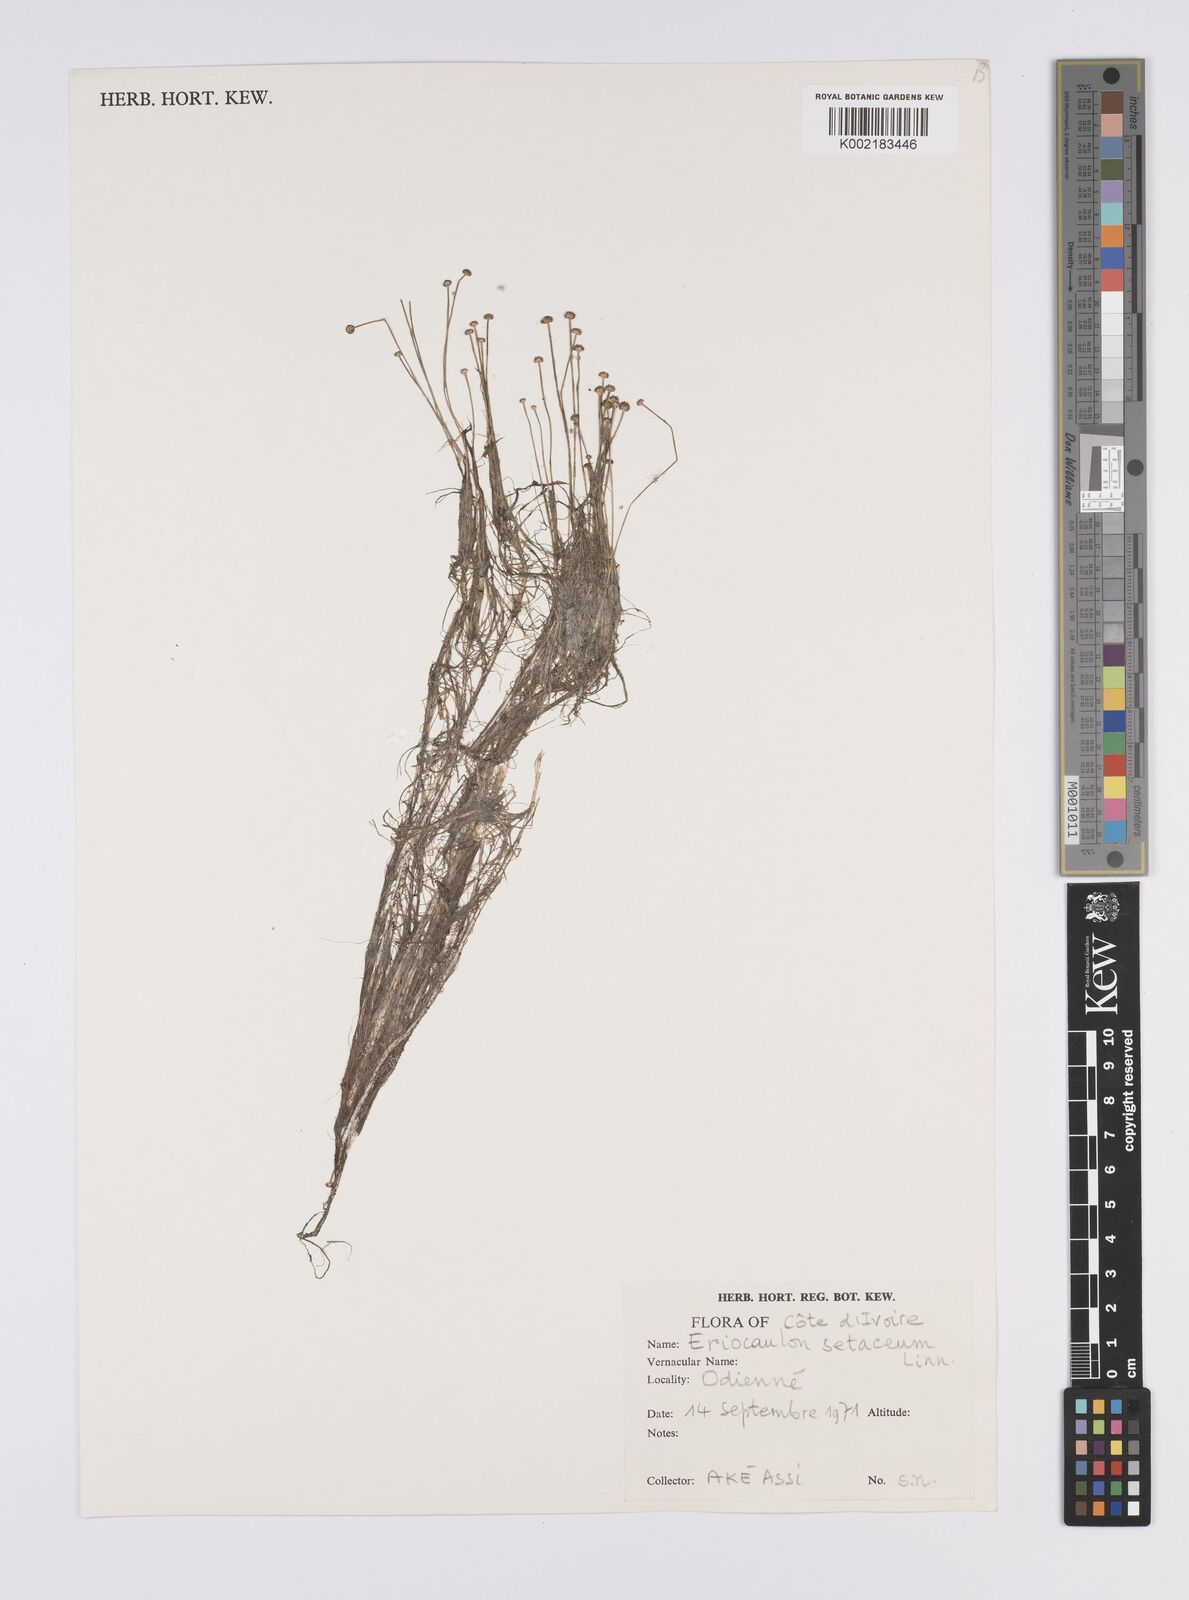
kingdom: Plantae
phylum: Tracheophyta
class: Liliopsida
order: Poales
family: Eriocaulaceae
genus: Eriocaulon
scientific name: Eriocaulon setaceum
